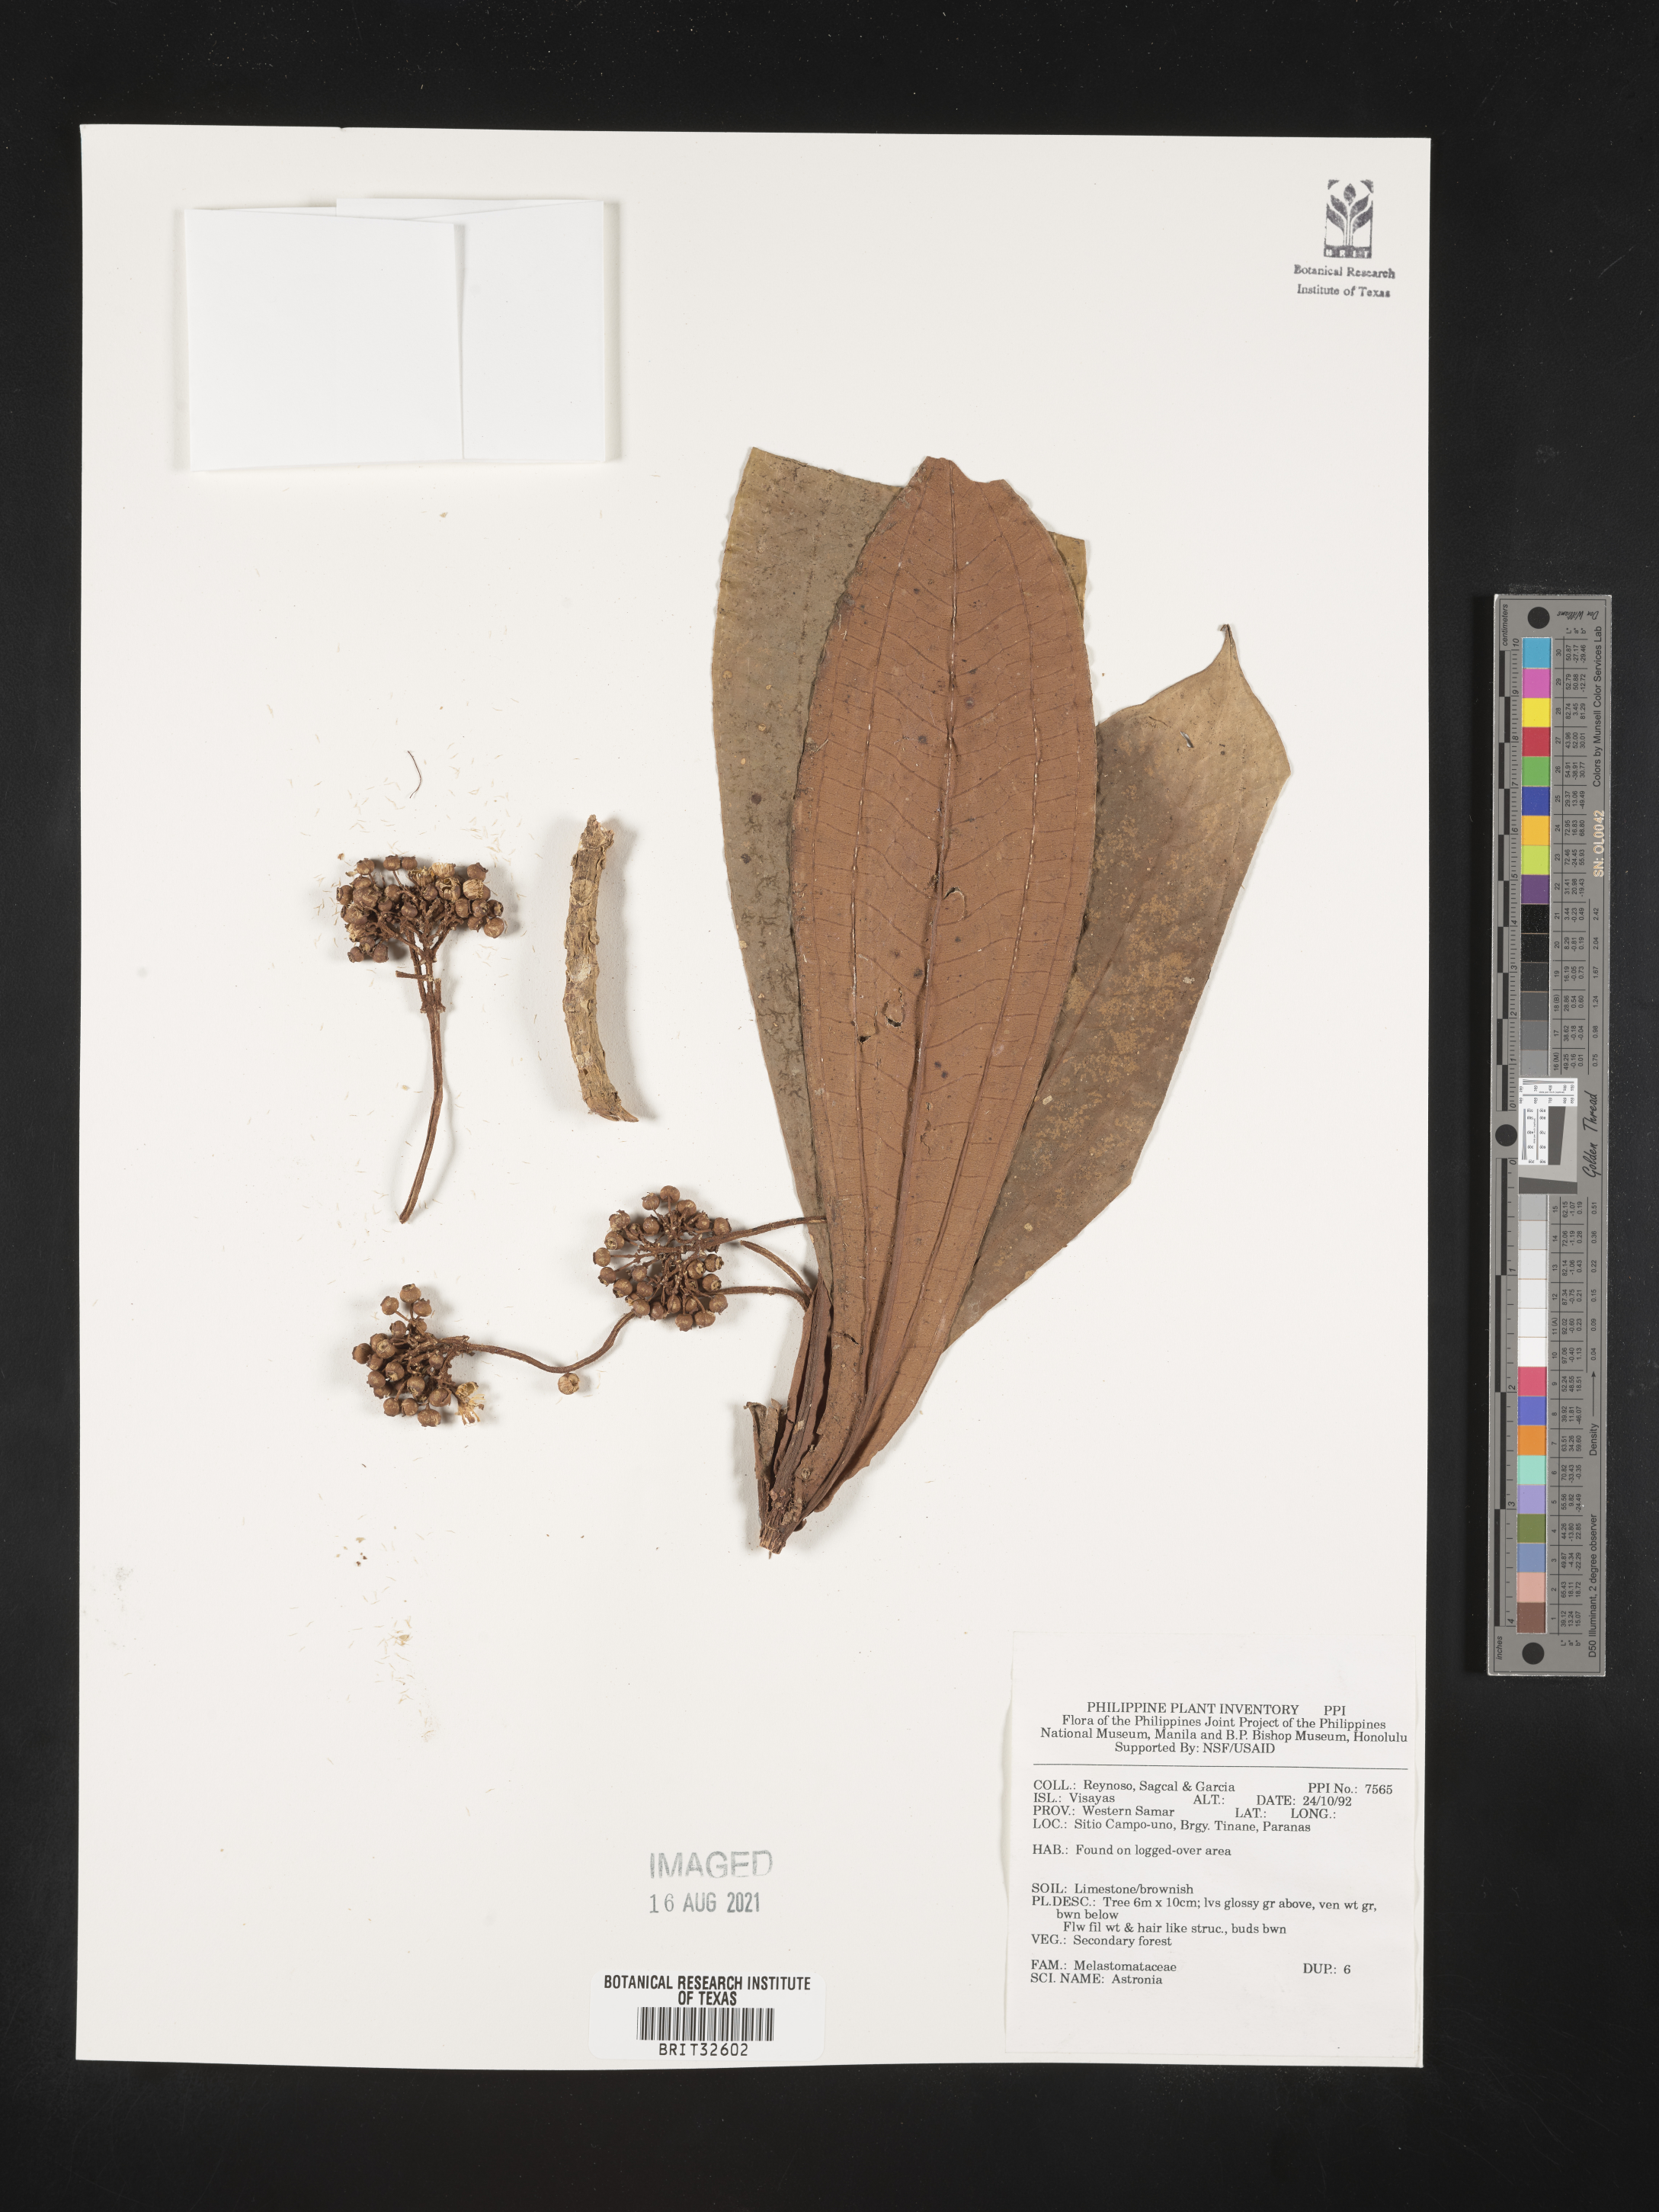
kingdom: Plantae
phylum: Tracheophyta
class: Magnoliopsida
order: Myrtales
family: Melastomataceae
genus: Astronia
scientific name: Astronia
